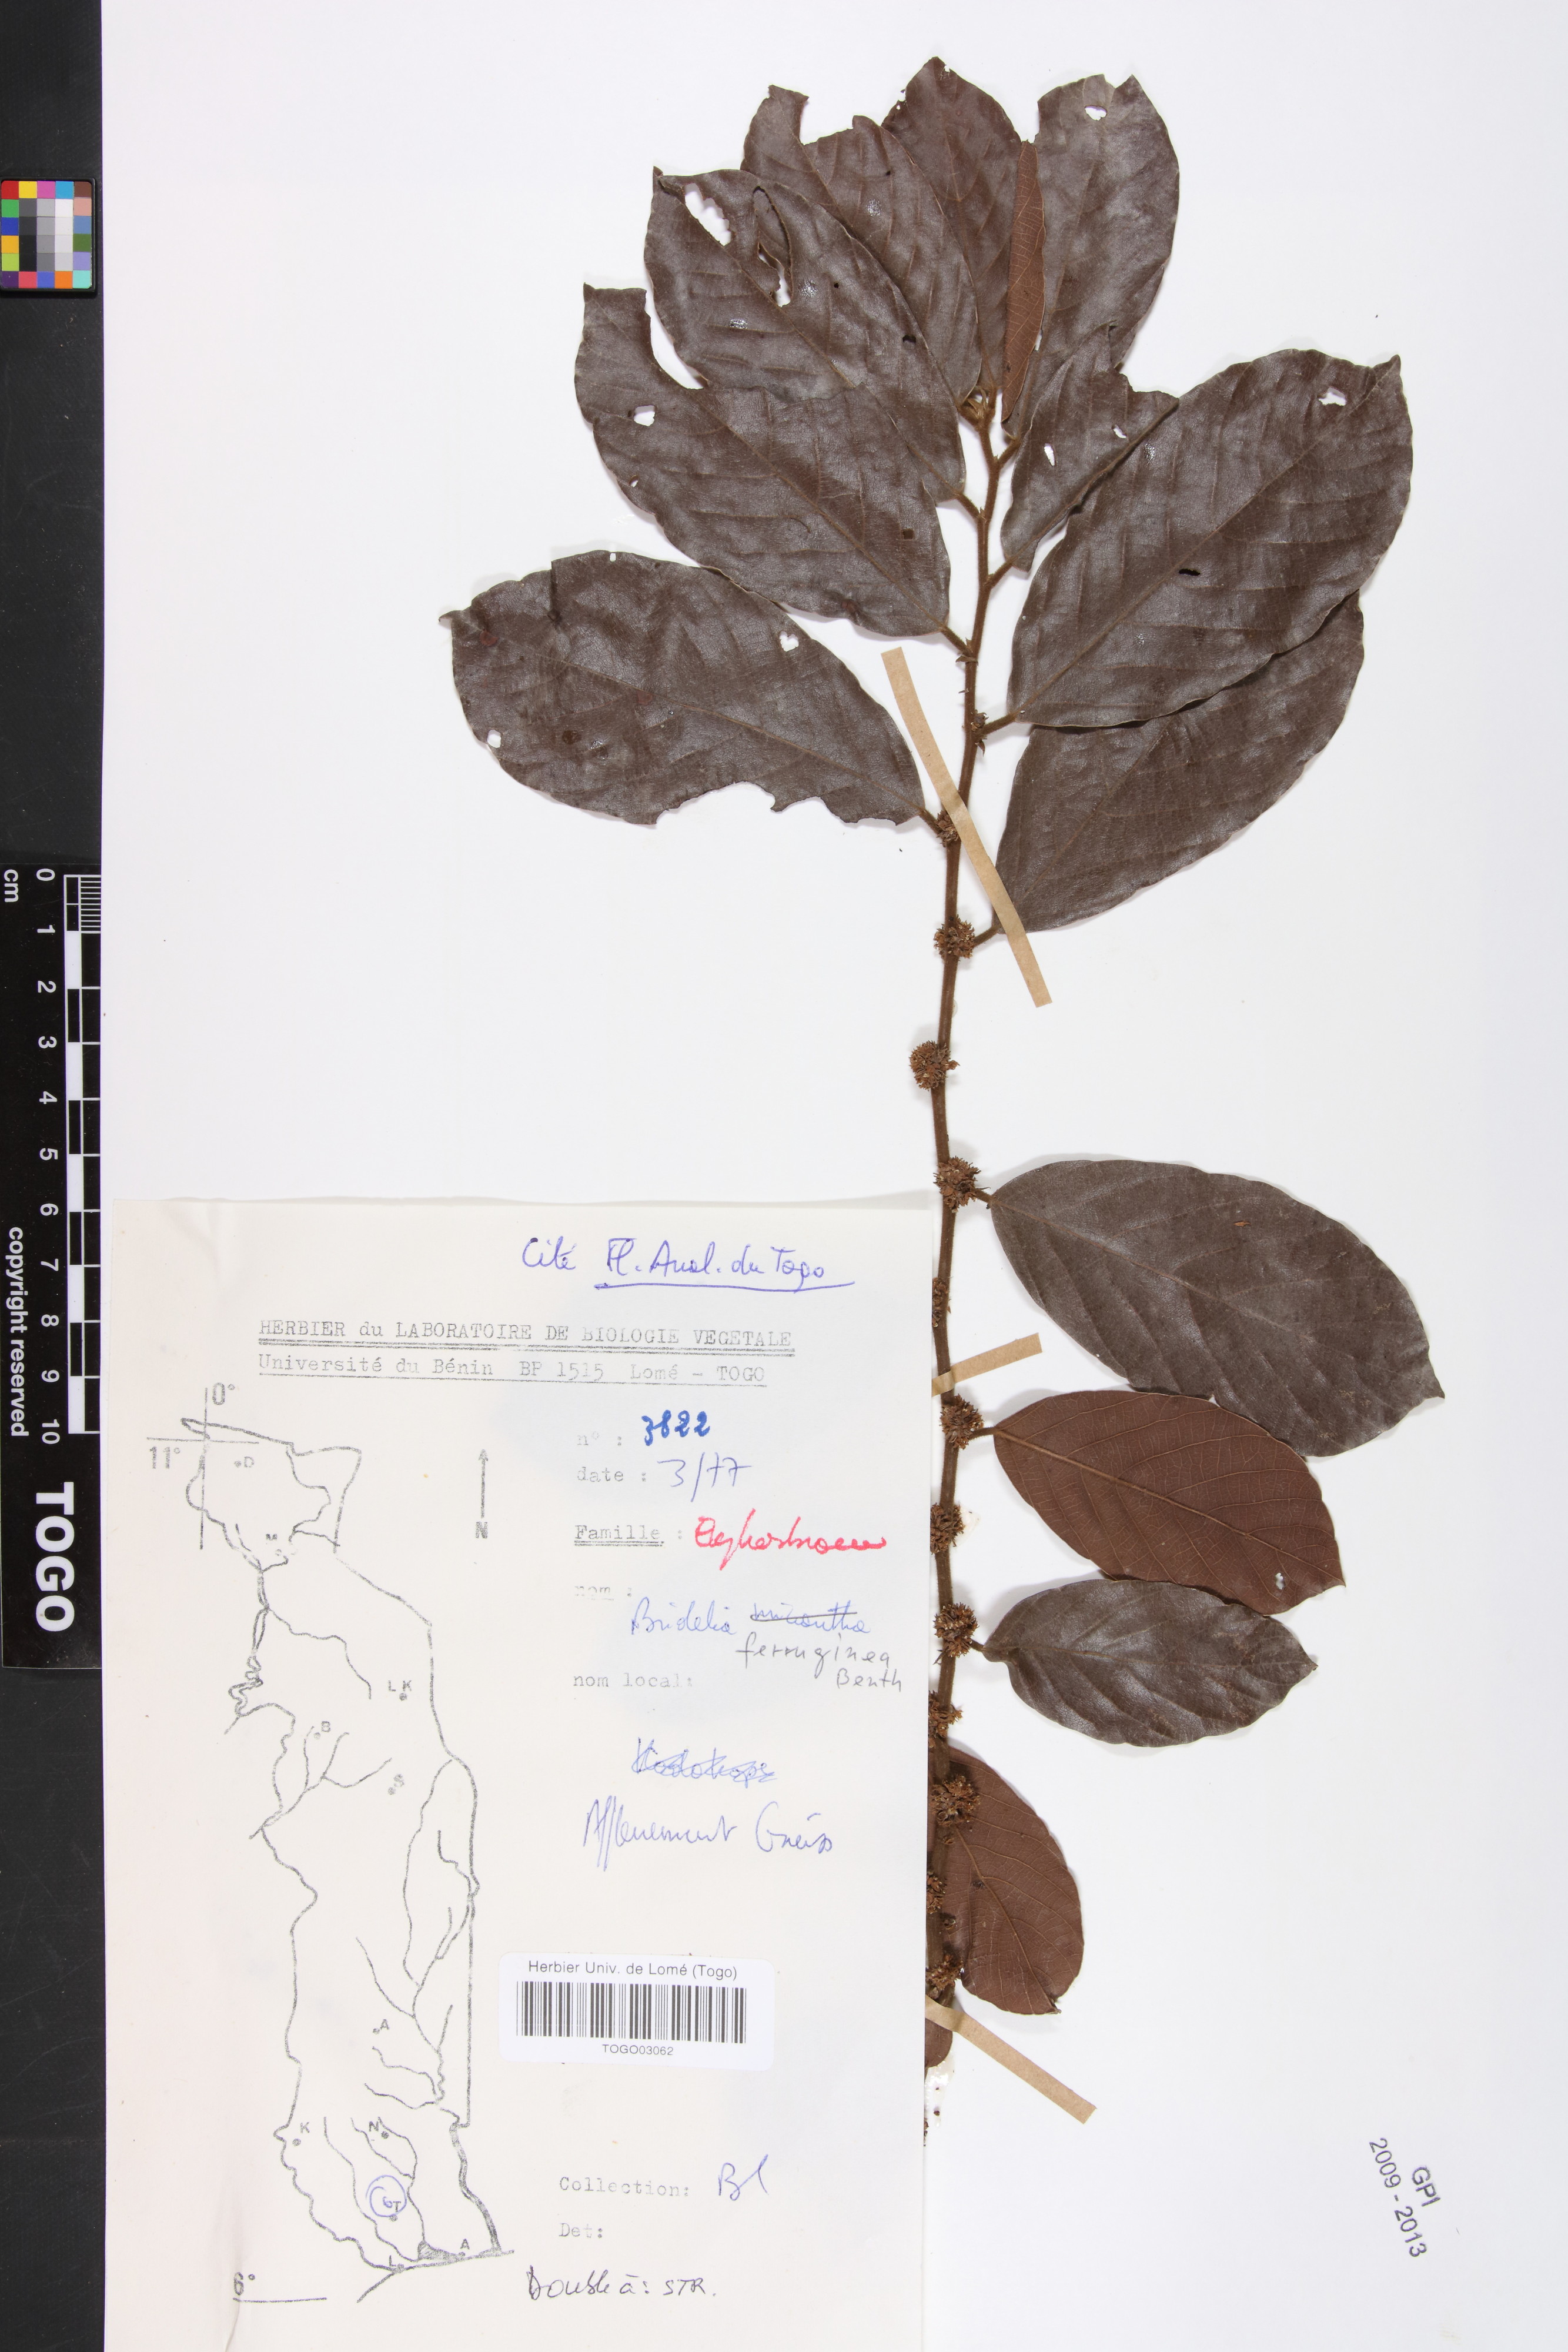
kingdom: Plantae
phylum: Tracheophyta
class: Magnoliopsida
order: Malpighiales
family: Phyllanthaceae
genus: Bridelia
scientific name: Bridelia ferruginea
